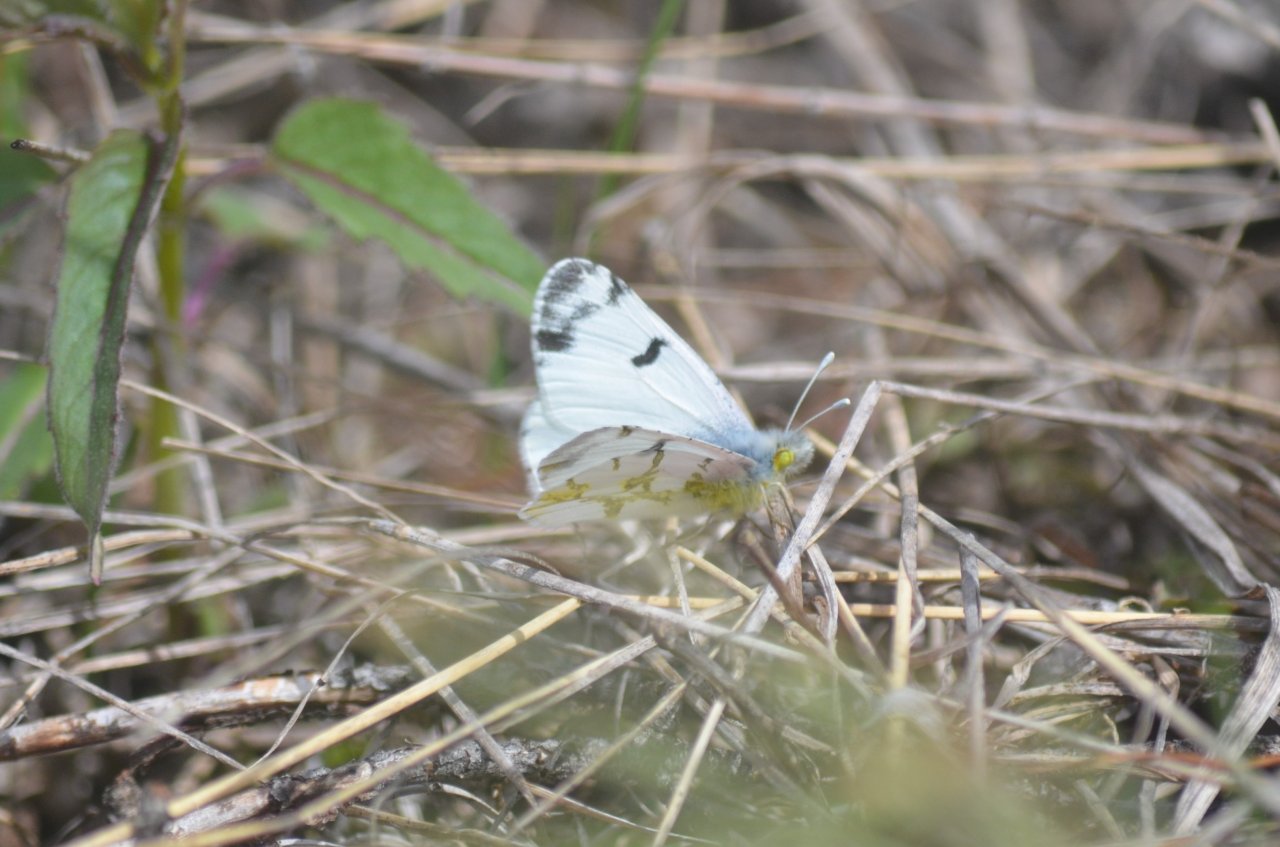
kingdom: Animalia
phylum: Arthropoda
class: Insecta
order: Lepidoptera
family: Pieridae
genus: Euchloe
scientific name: Euchloe olympia
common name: Olympia Marble
